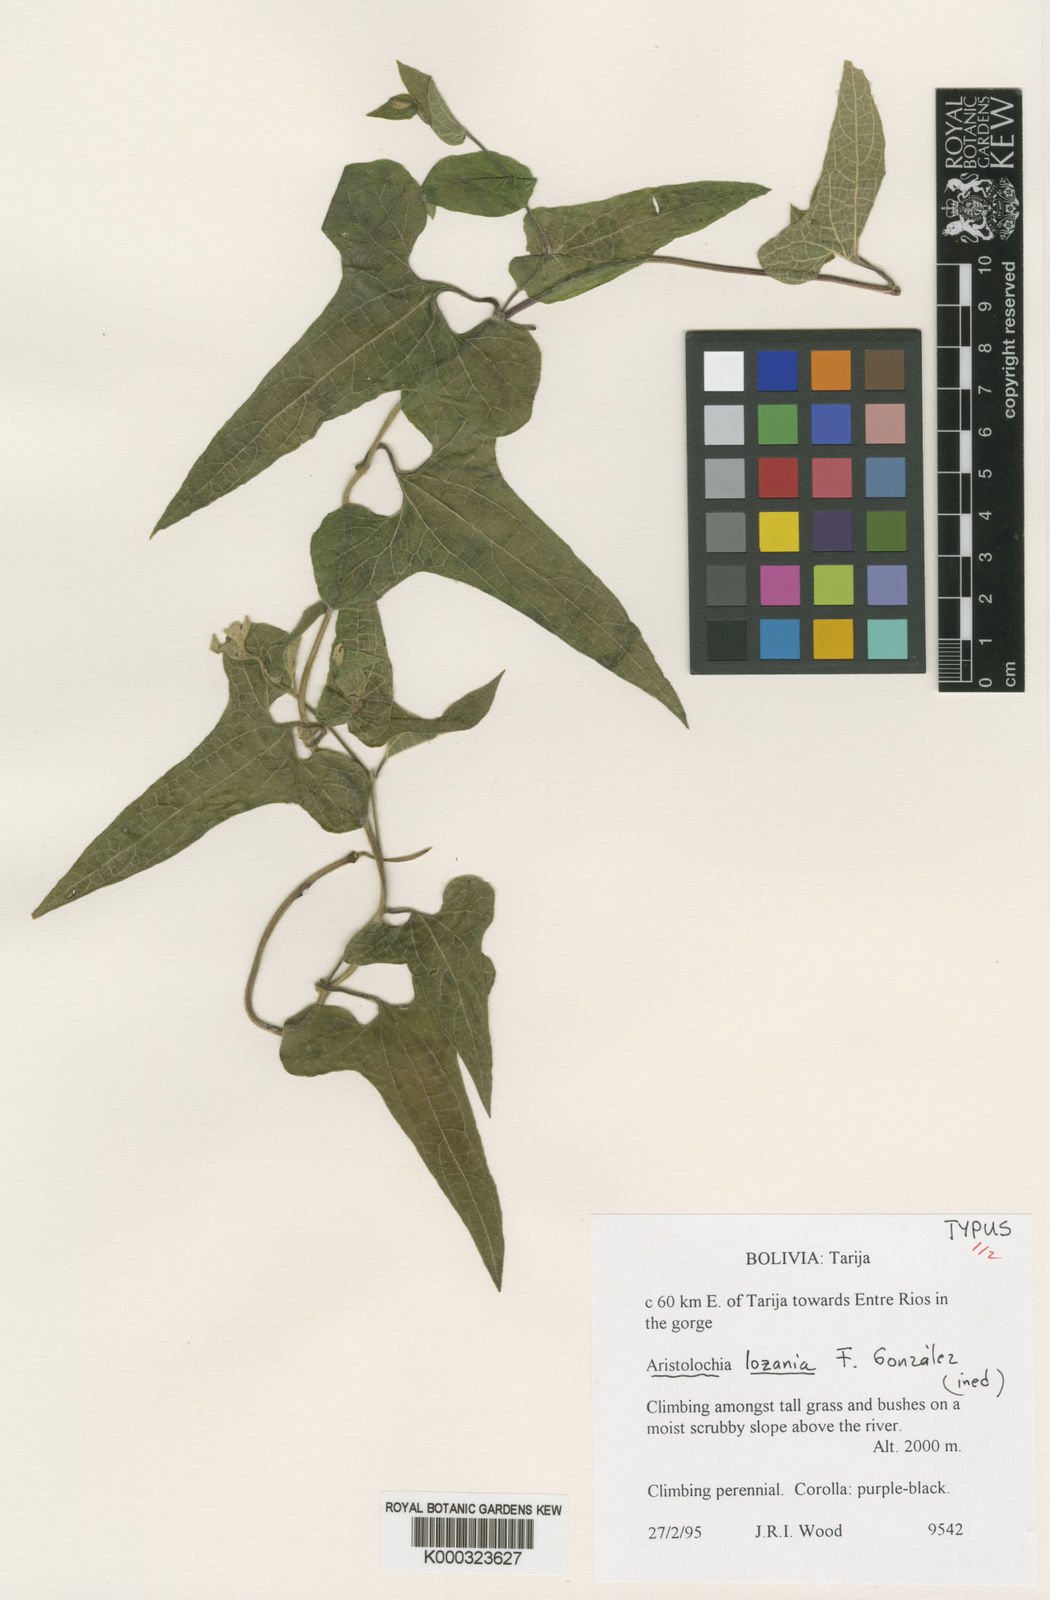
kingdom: Plantae
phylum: Tracheophyta
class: Magnoliopsida
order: Piperales
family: Aristolochiaceae
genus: Aristolochia
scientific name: Aristolochia
